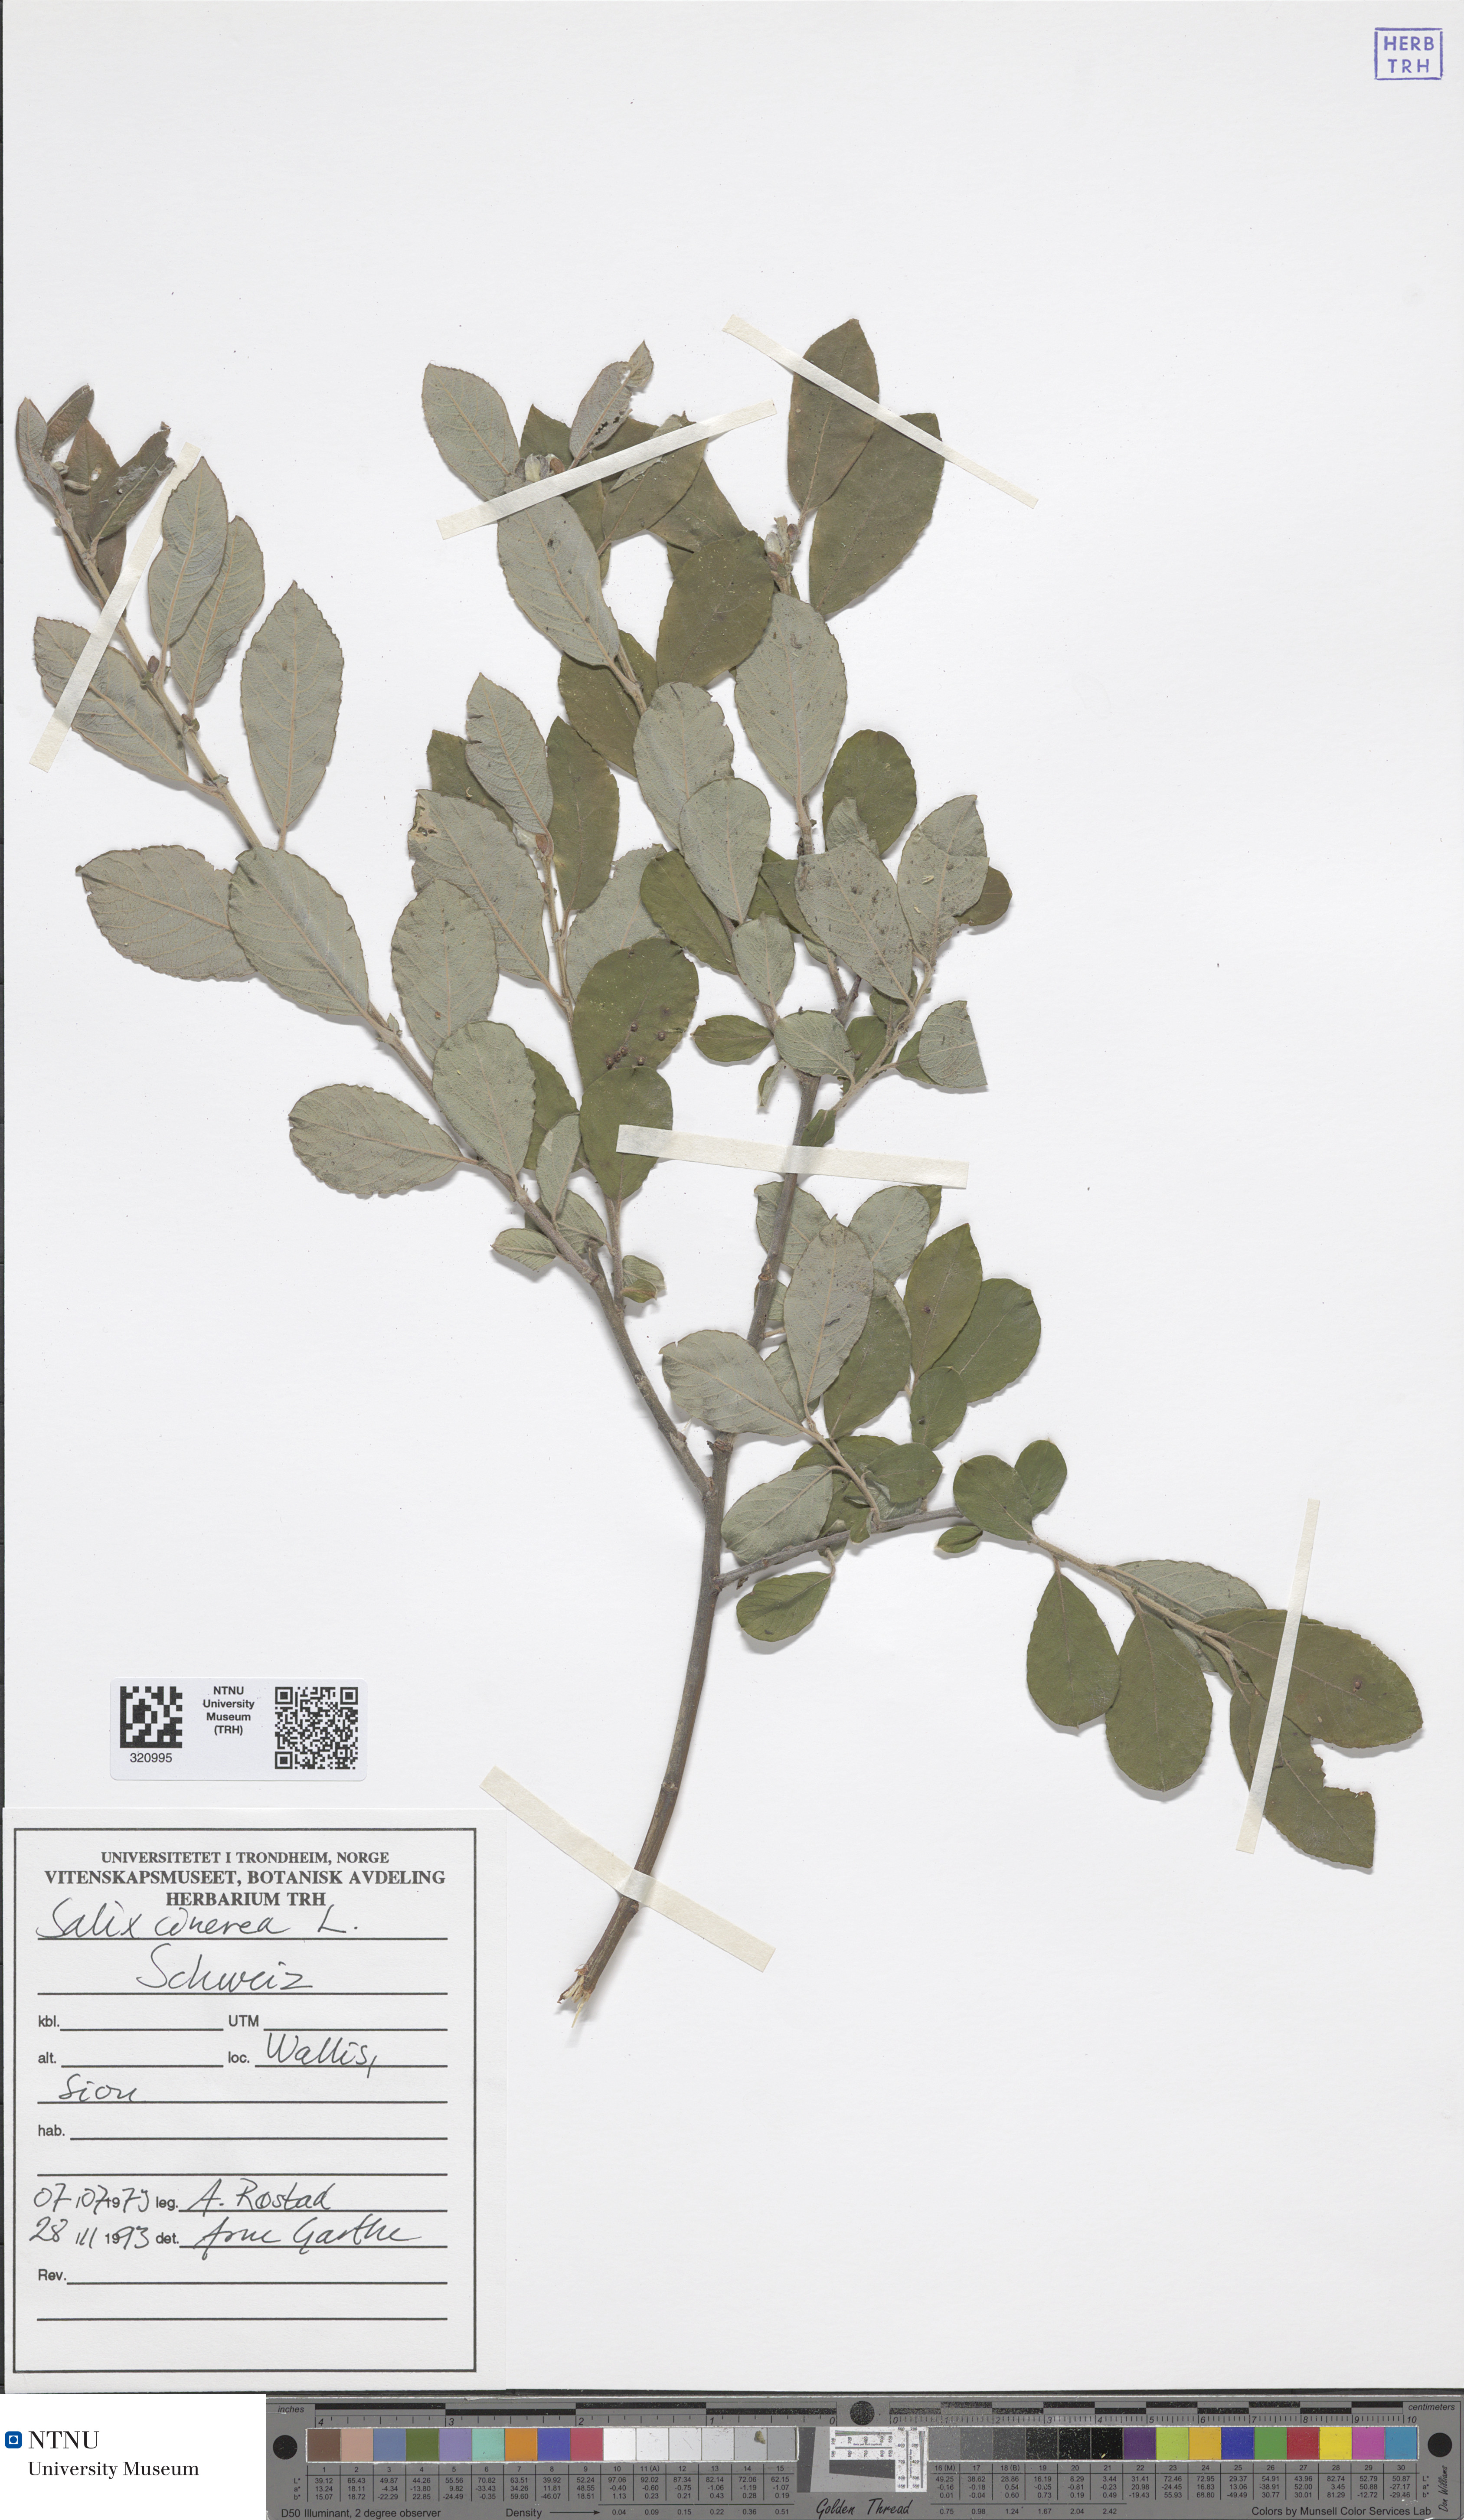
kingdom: Plantae
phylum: Tracheophyta
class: Magnoliopsida
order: Malpighiales
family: Salicaceae
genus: Salix
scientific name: Salix cinerea
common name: Common sallow
